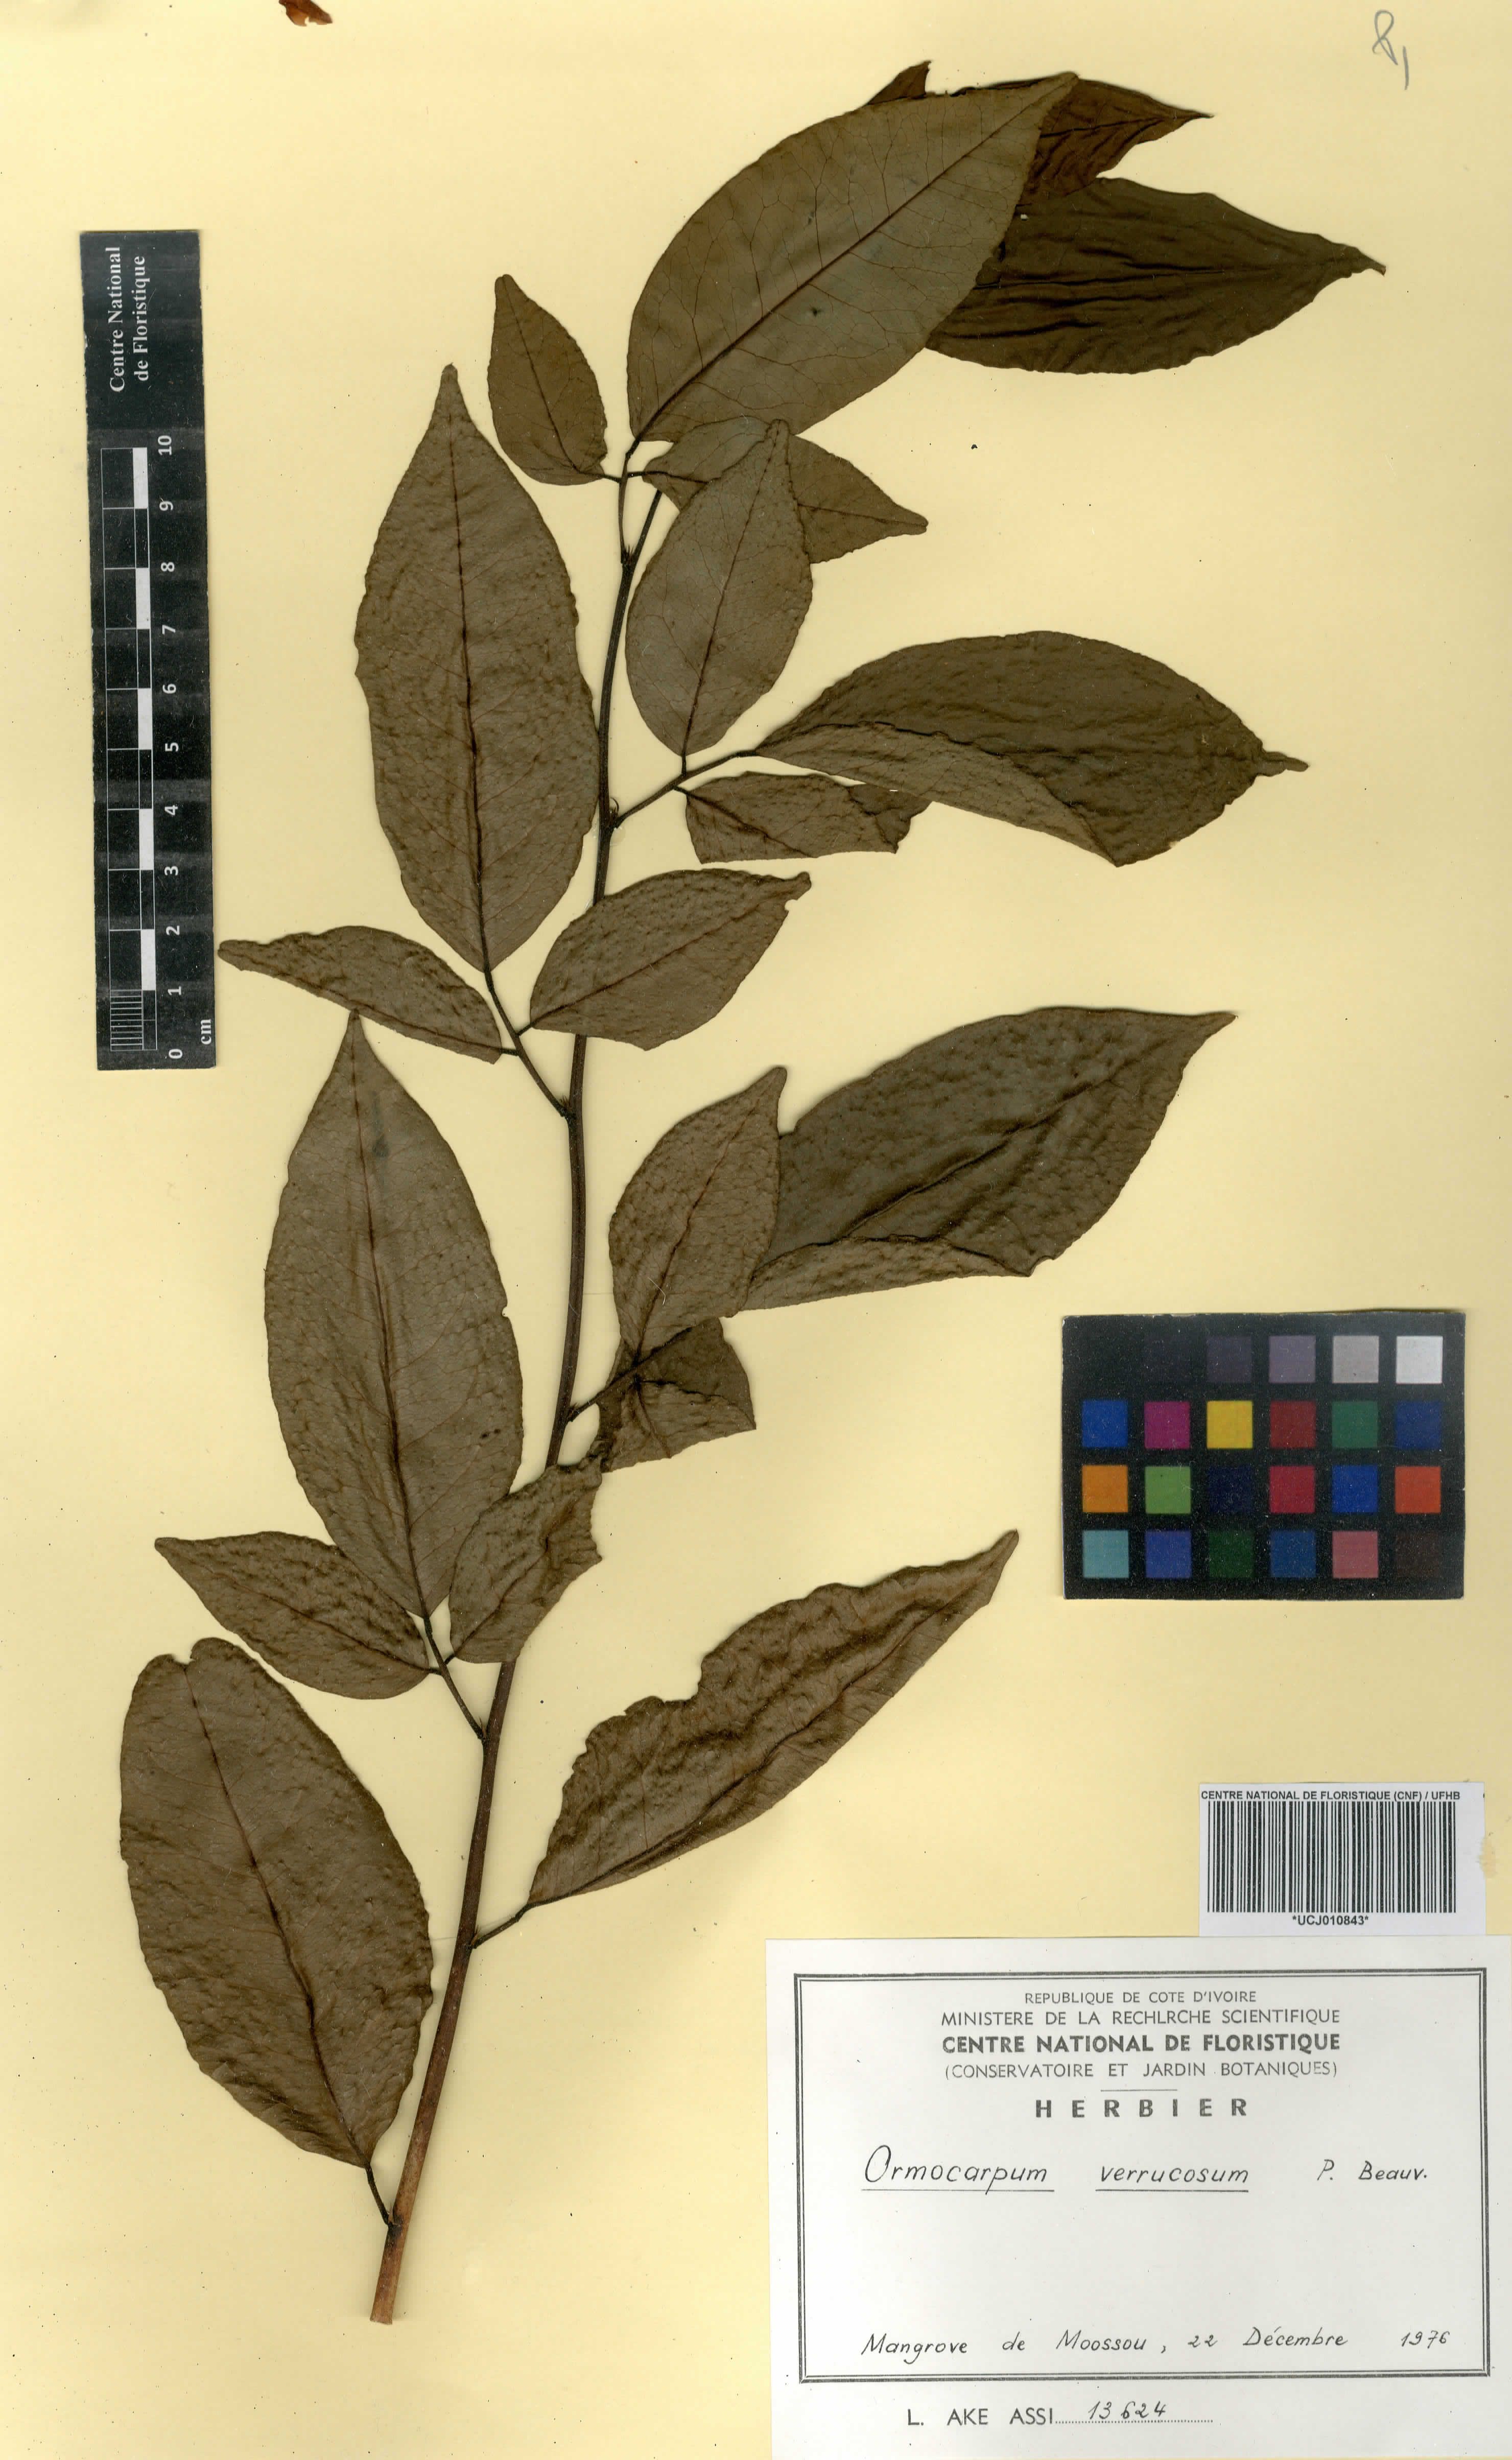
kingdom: Plantae
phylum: Tracheophyta
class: Magnoliopsida
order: Fabales
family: Fabaceae
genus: Ormocarpum
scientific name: Ormocarpum verrucosum
